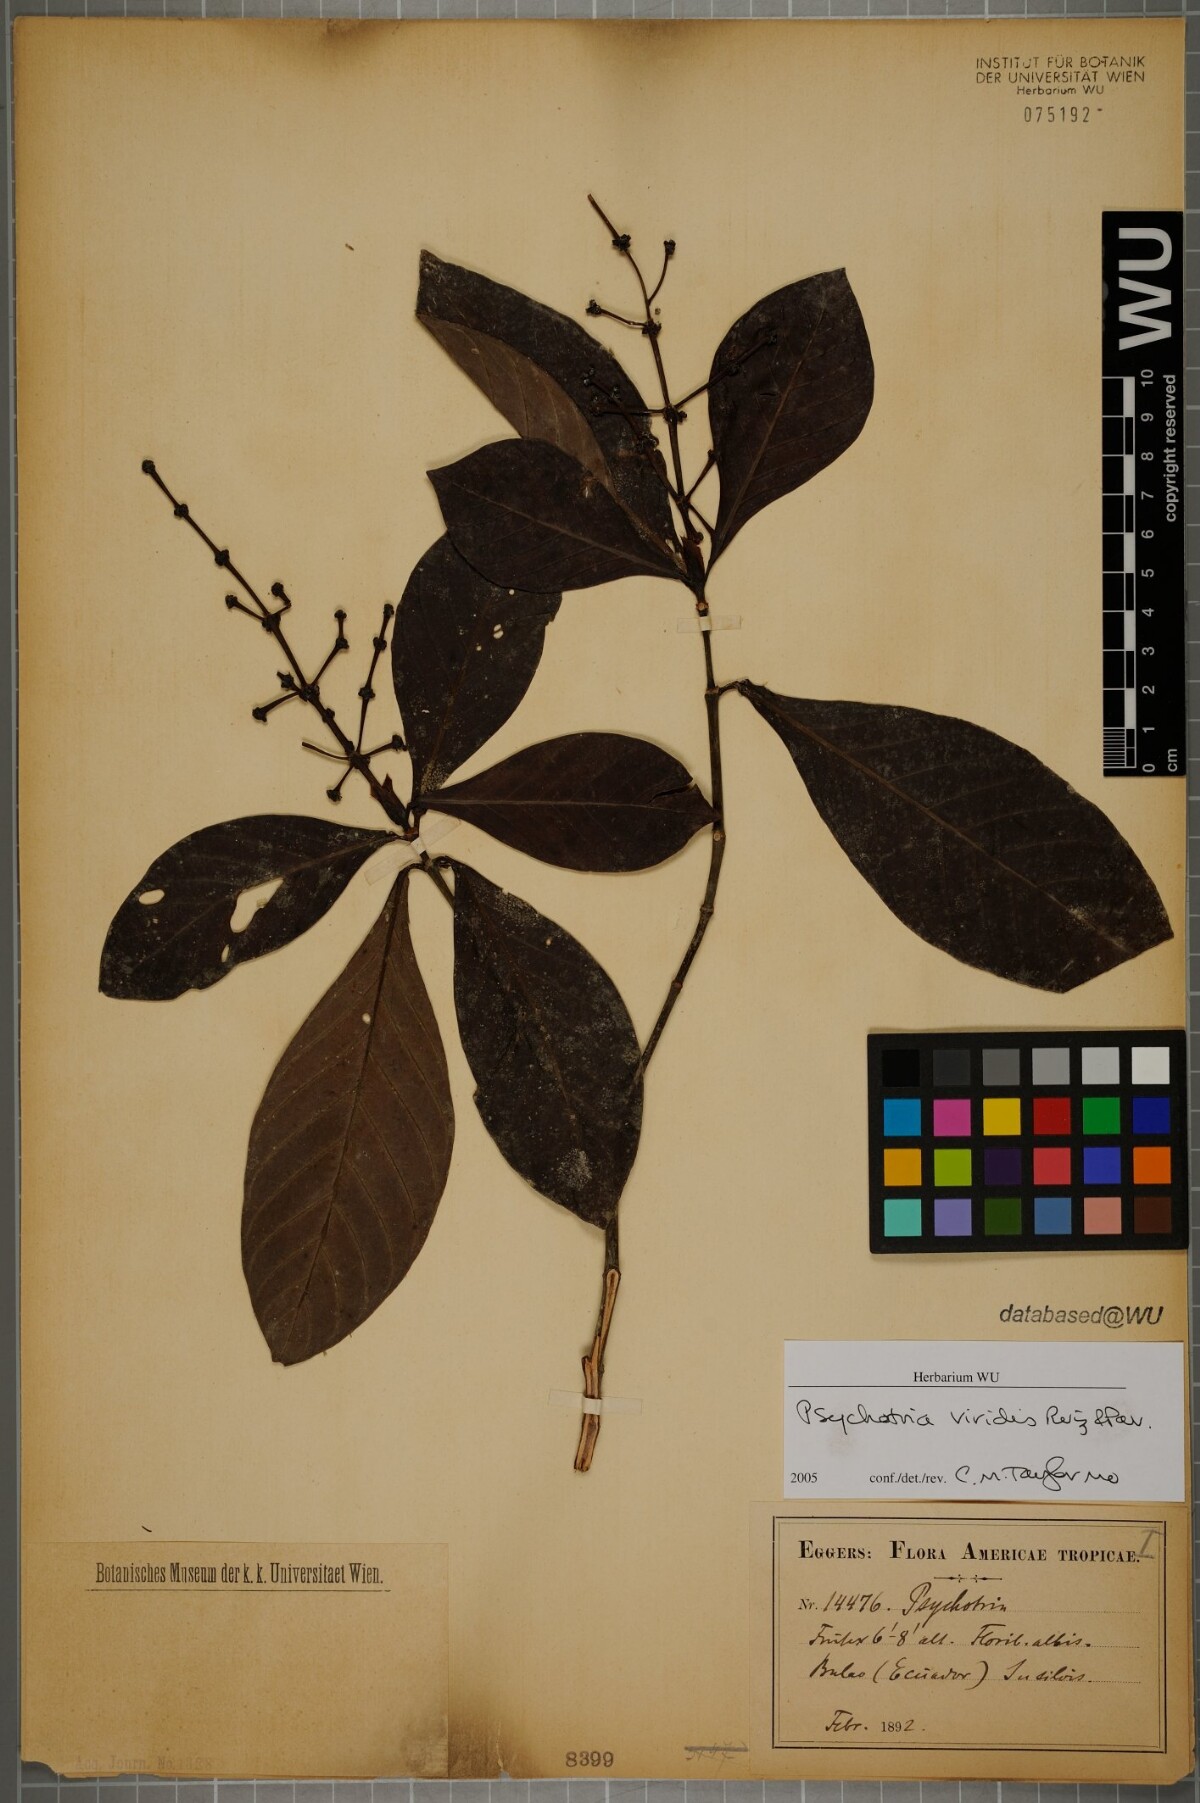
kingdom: Plantae
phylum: Tracheophyta
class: Magnoliopsida
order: Gentianales
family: Rubiaceae
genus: Psychotria
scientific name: Psychotria viridis
